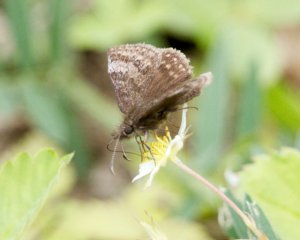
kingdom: Animalia
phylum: Arthropoda
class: Insecta
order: Lepidoptera
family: Hesperiidae
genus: Erynnis
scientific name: Erynnis icelus
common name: Dreamy Duskywing
